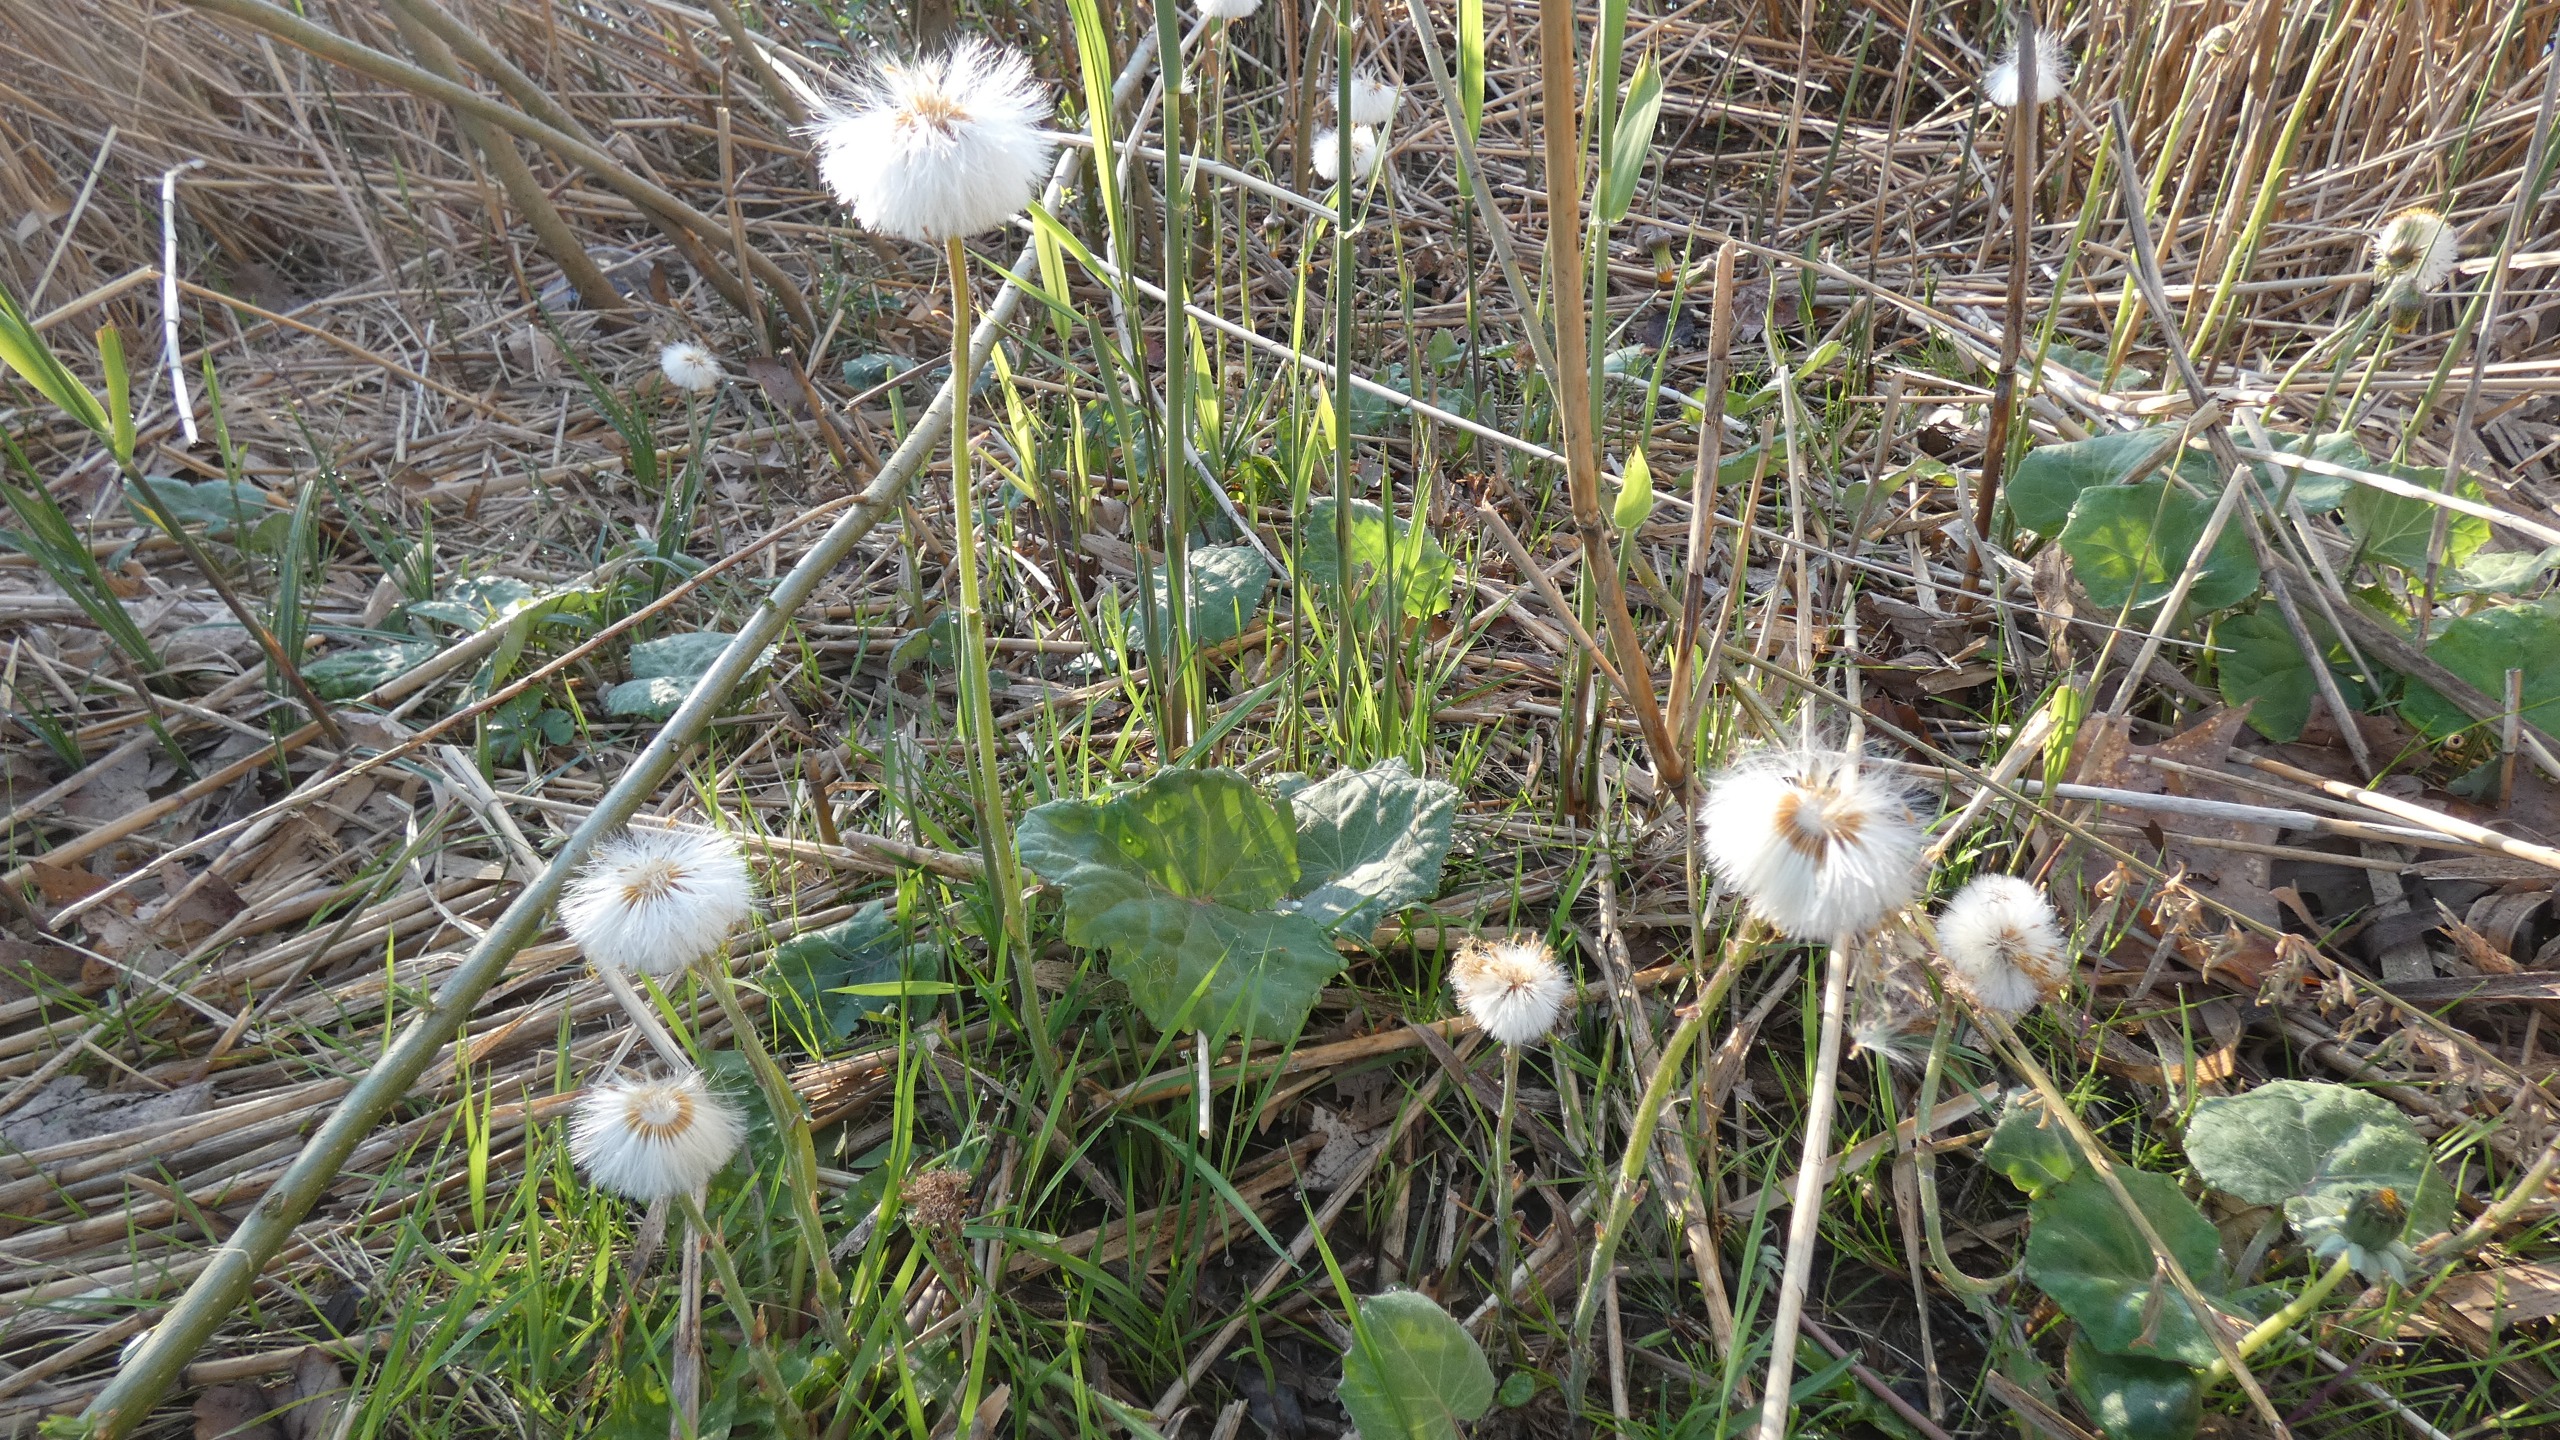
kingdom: Plantae
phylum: Tracheophyta
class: Magnoliopsida
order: Asterales
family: Asteraceae
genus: Tussilago
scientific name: Tussilago farfara
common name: Følfod
